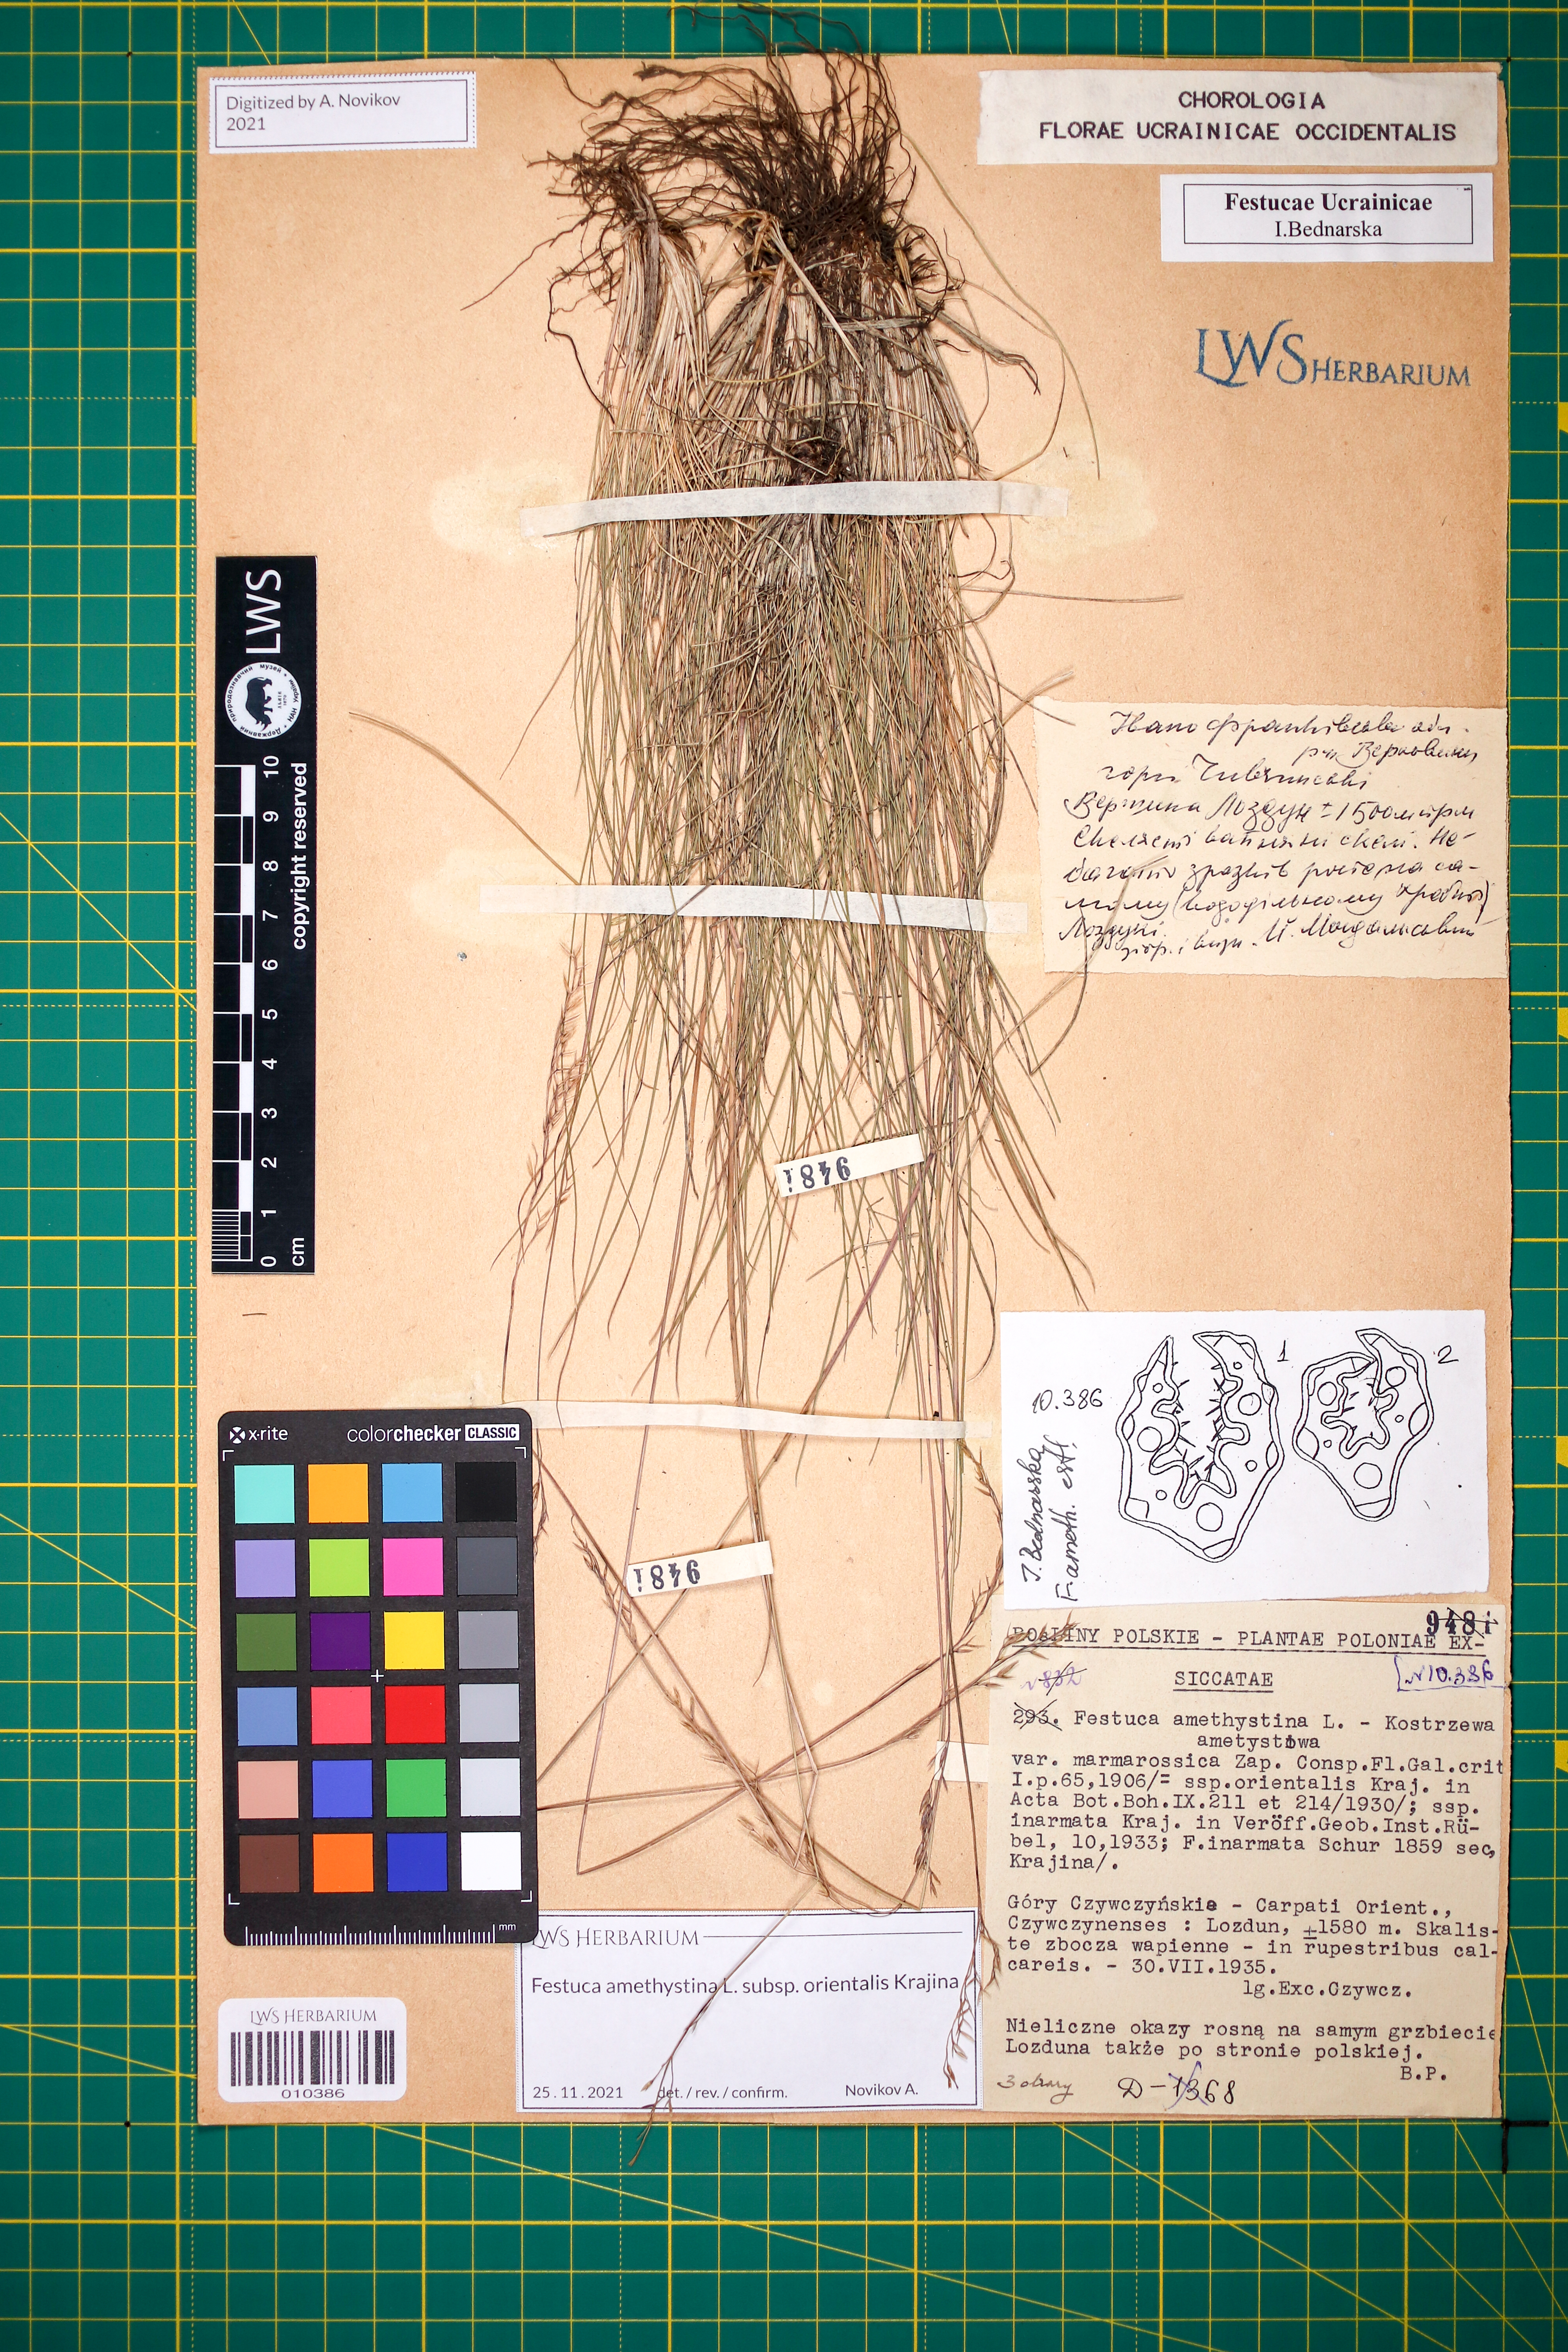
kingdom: Plantae
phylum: Tracheophyta
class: Liliopsida
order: Poales
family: Poaceae
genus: Festuca
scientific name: Festuca amethystina
